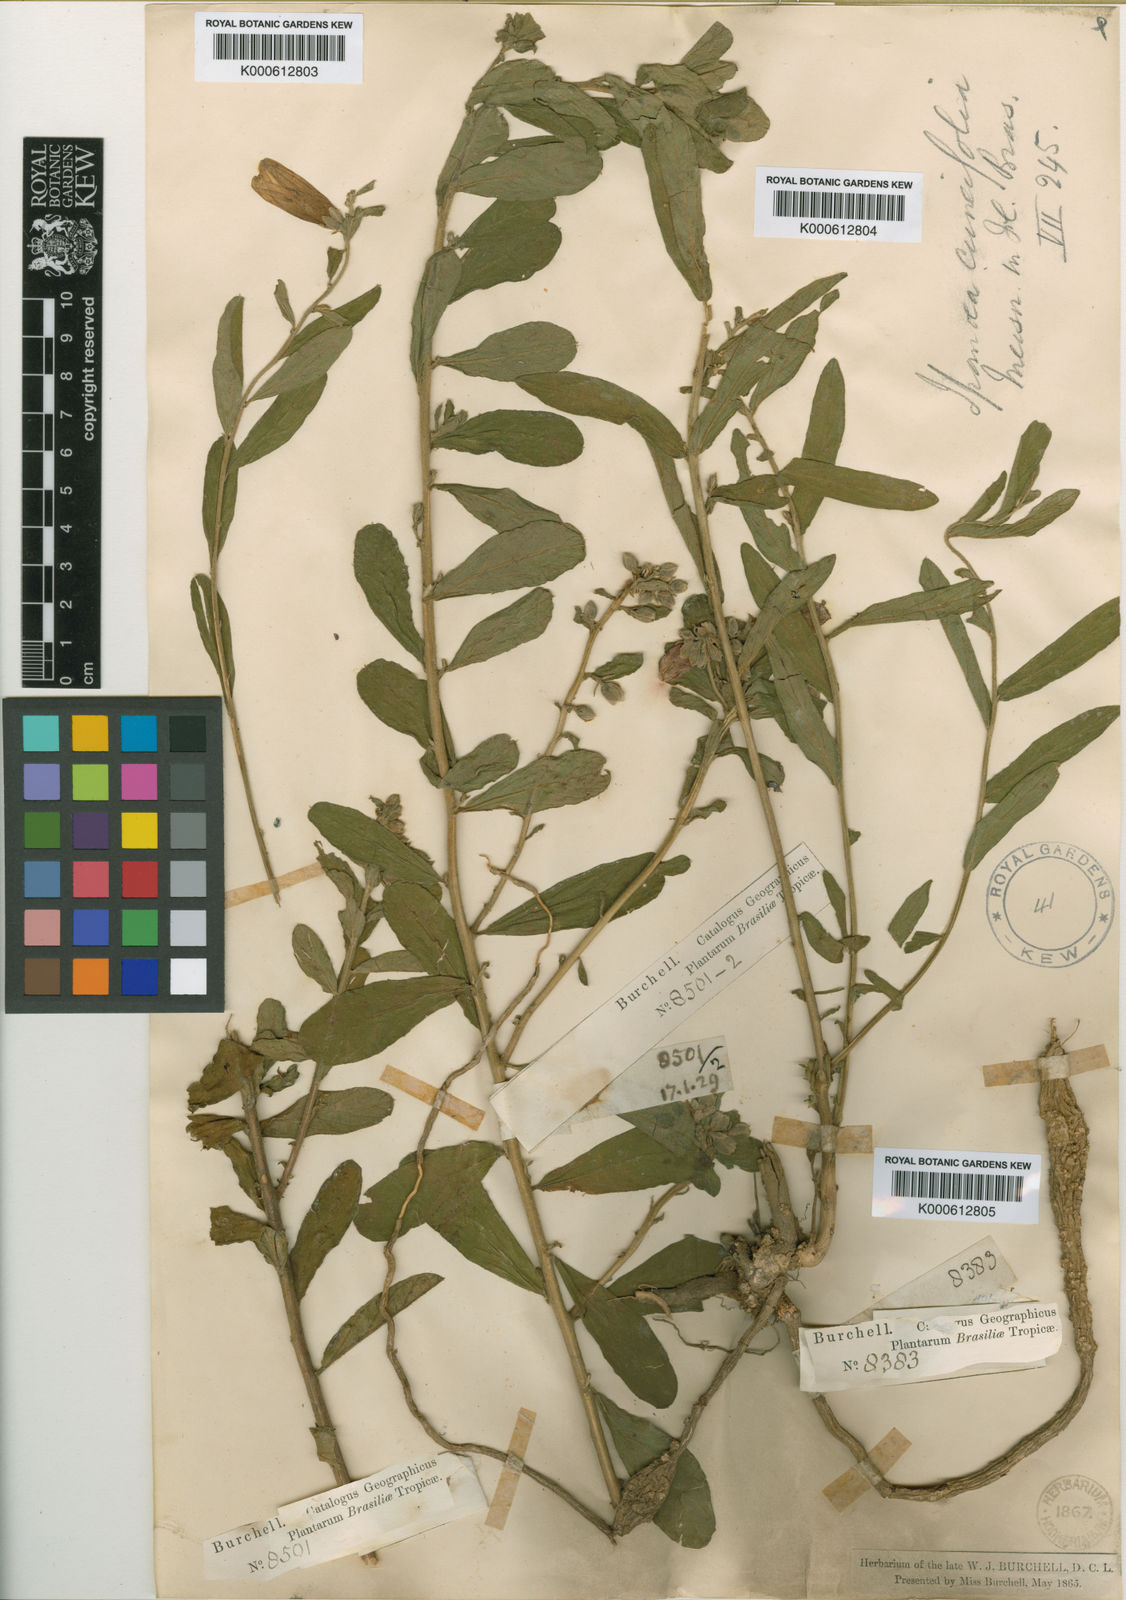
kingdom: Plantae
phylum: Tracheophyta
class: Magnoliopsida
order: Solanales
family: Convolvulaceae
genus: Ipomoea
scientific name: Ipomoea cuneifolia
